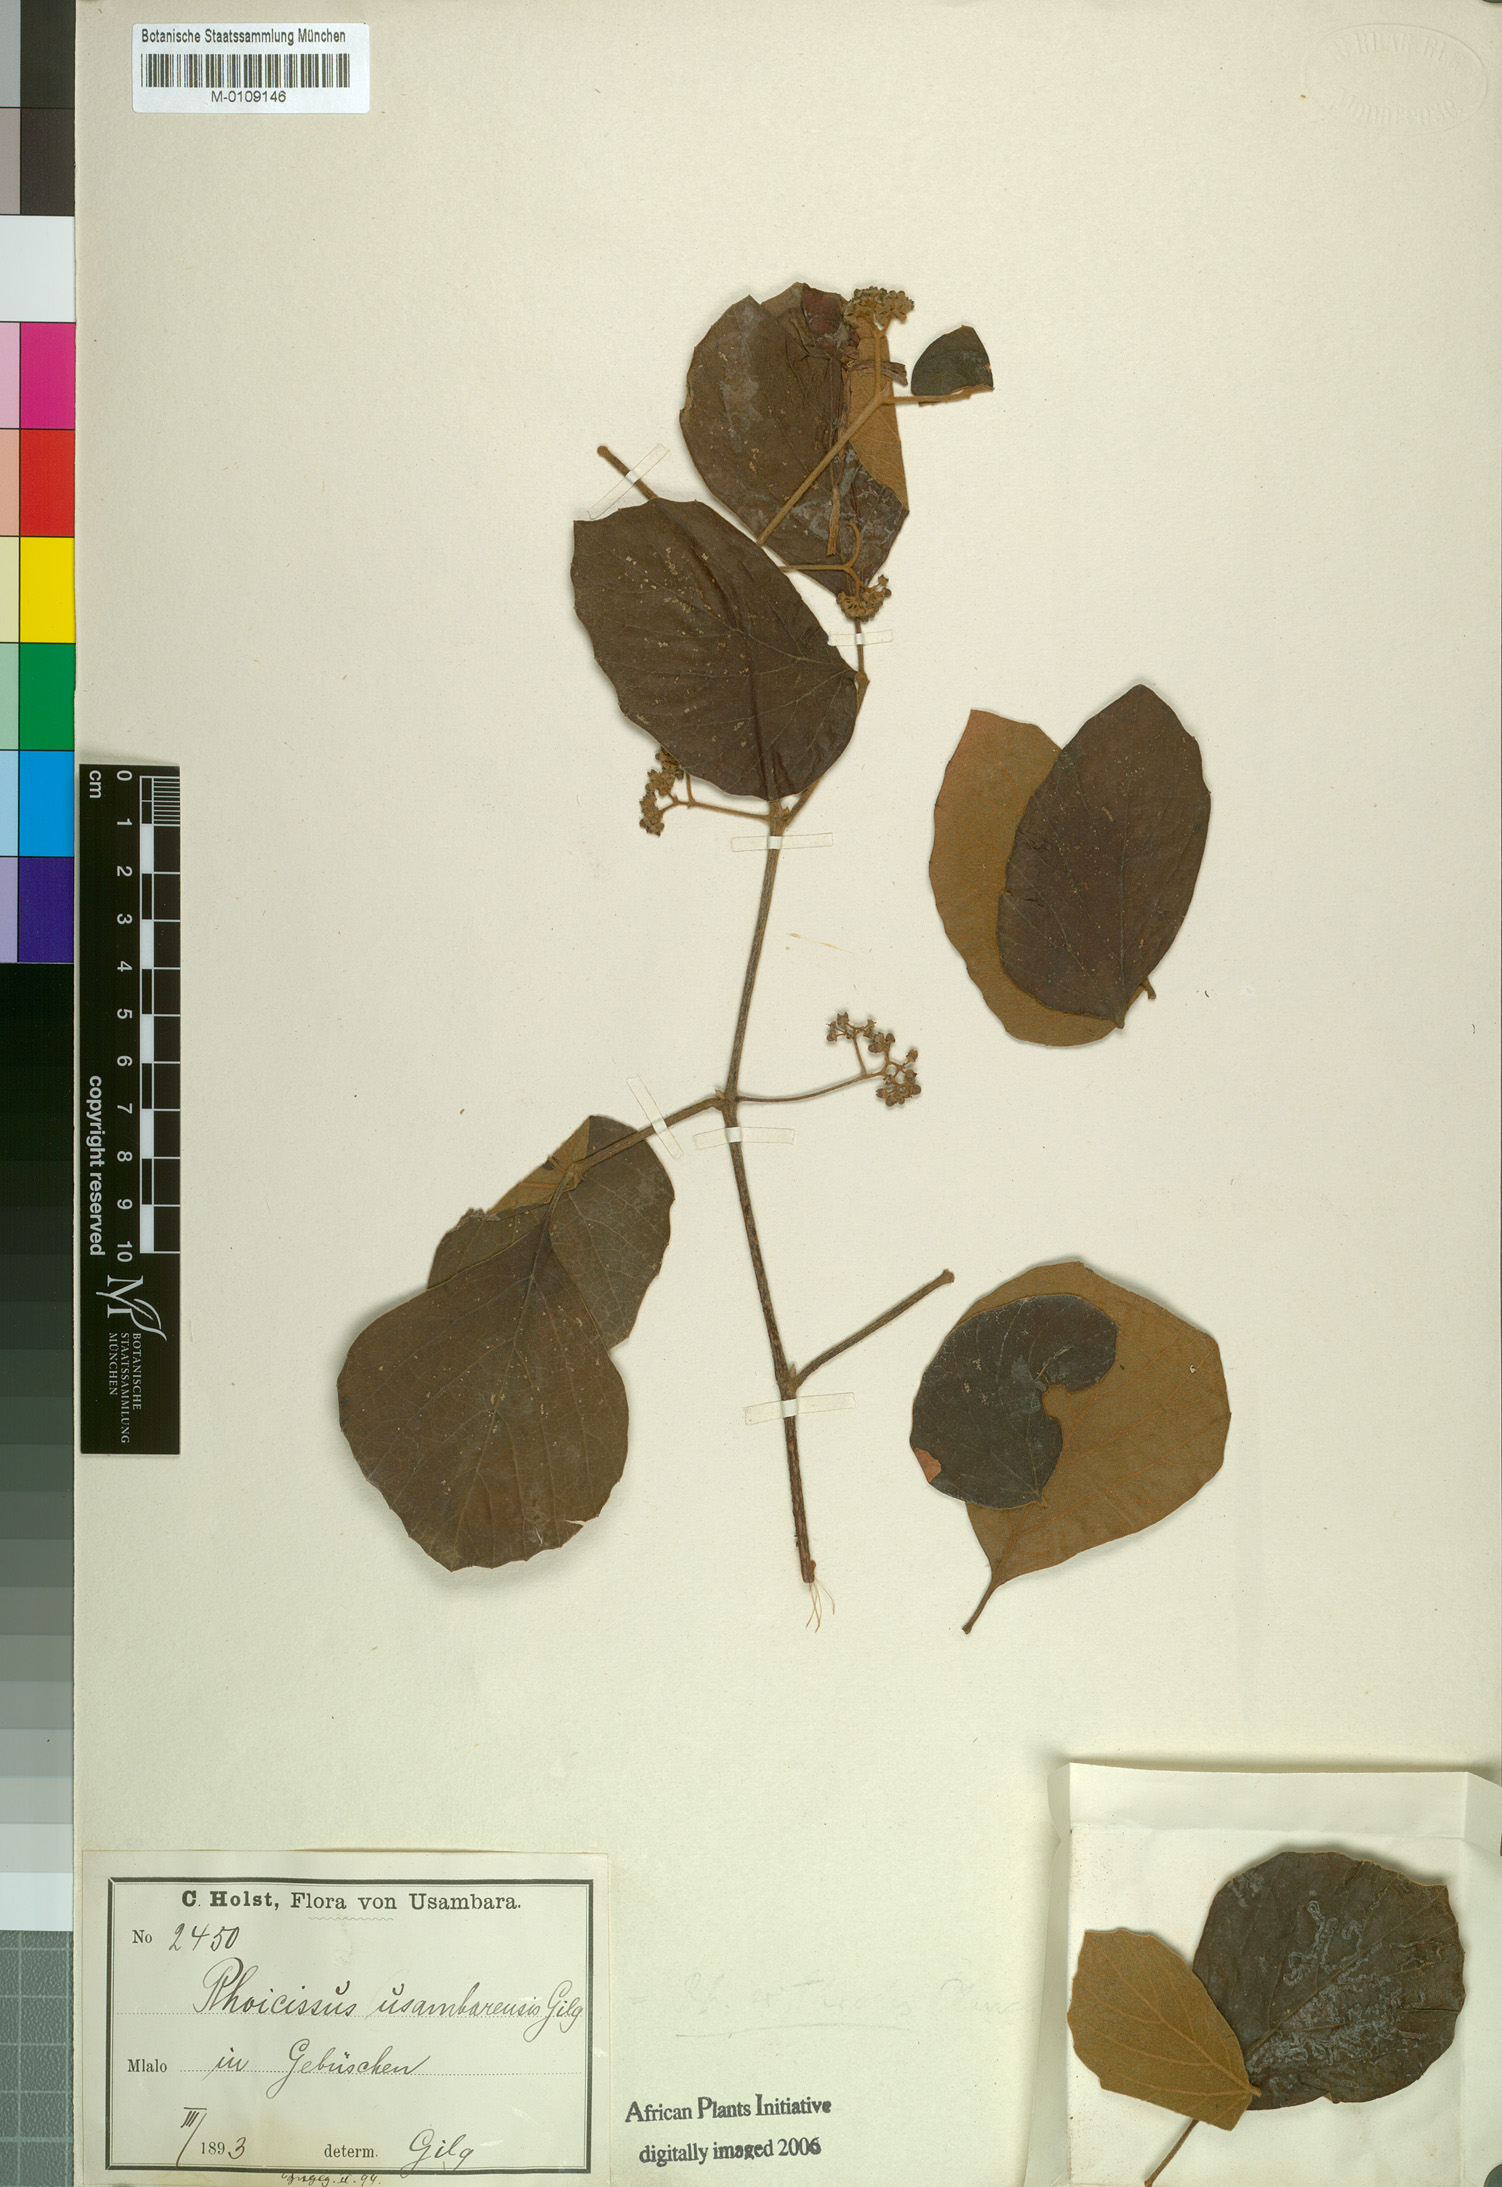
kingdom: Plantae
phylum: Tracheophyta
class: Magnoliopsida
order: Vitales
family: Vitaceae
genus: Rhoicissus
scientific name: Rhoicissus tridentata
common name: Common forest grape
